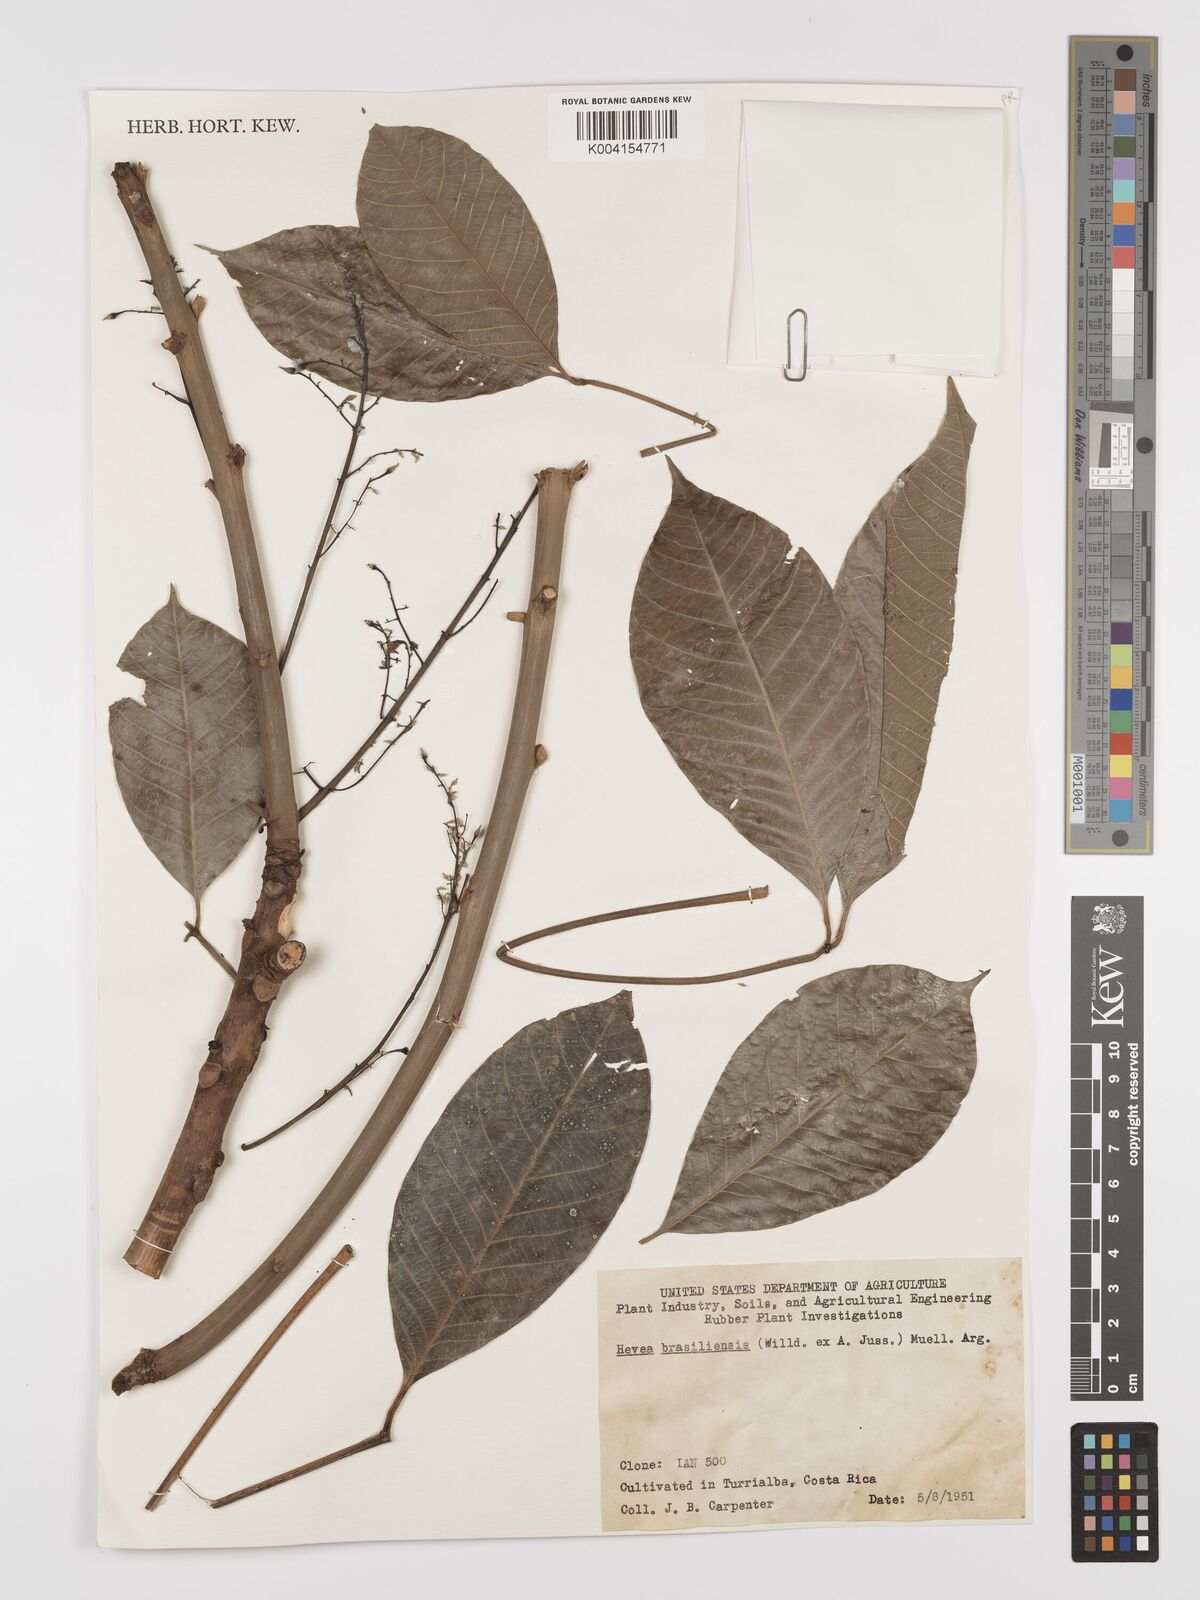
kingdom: Plantae
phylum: Tracheophyta
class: Magnoliopsida
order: Malpighiales
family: Euphorbiaceae
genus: Hevea
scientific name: Hevea brasiliensis
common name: Natural rubber
